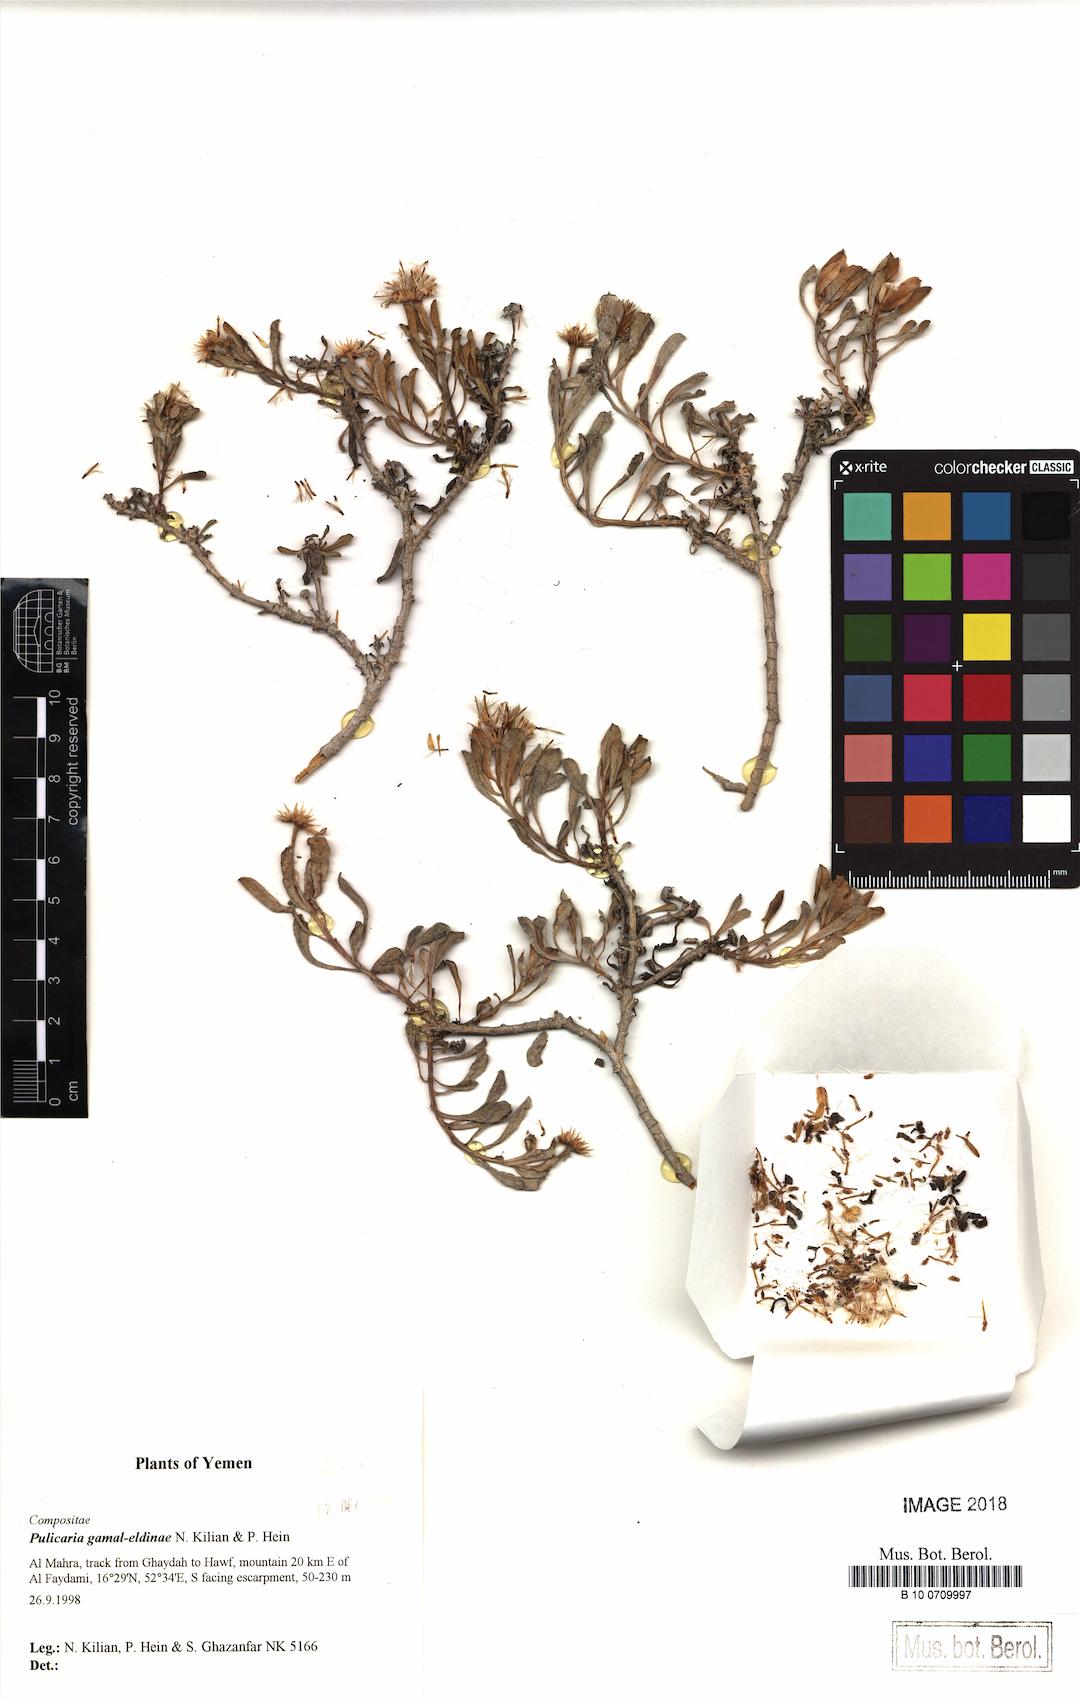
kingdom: Plantae
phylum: Tracheophyta
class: Magnoliopsida
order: Asterales
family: Asteraceae
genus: Pulicaria
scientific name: Pulicaria gamal-eldiniae
